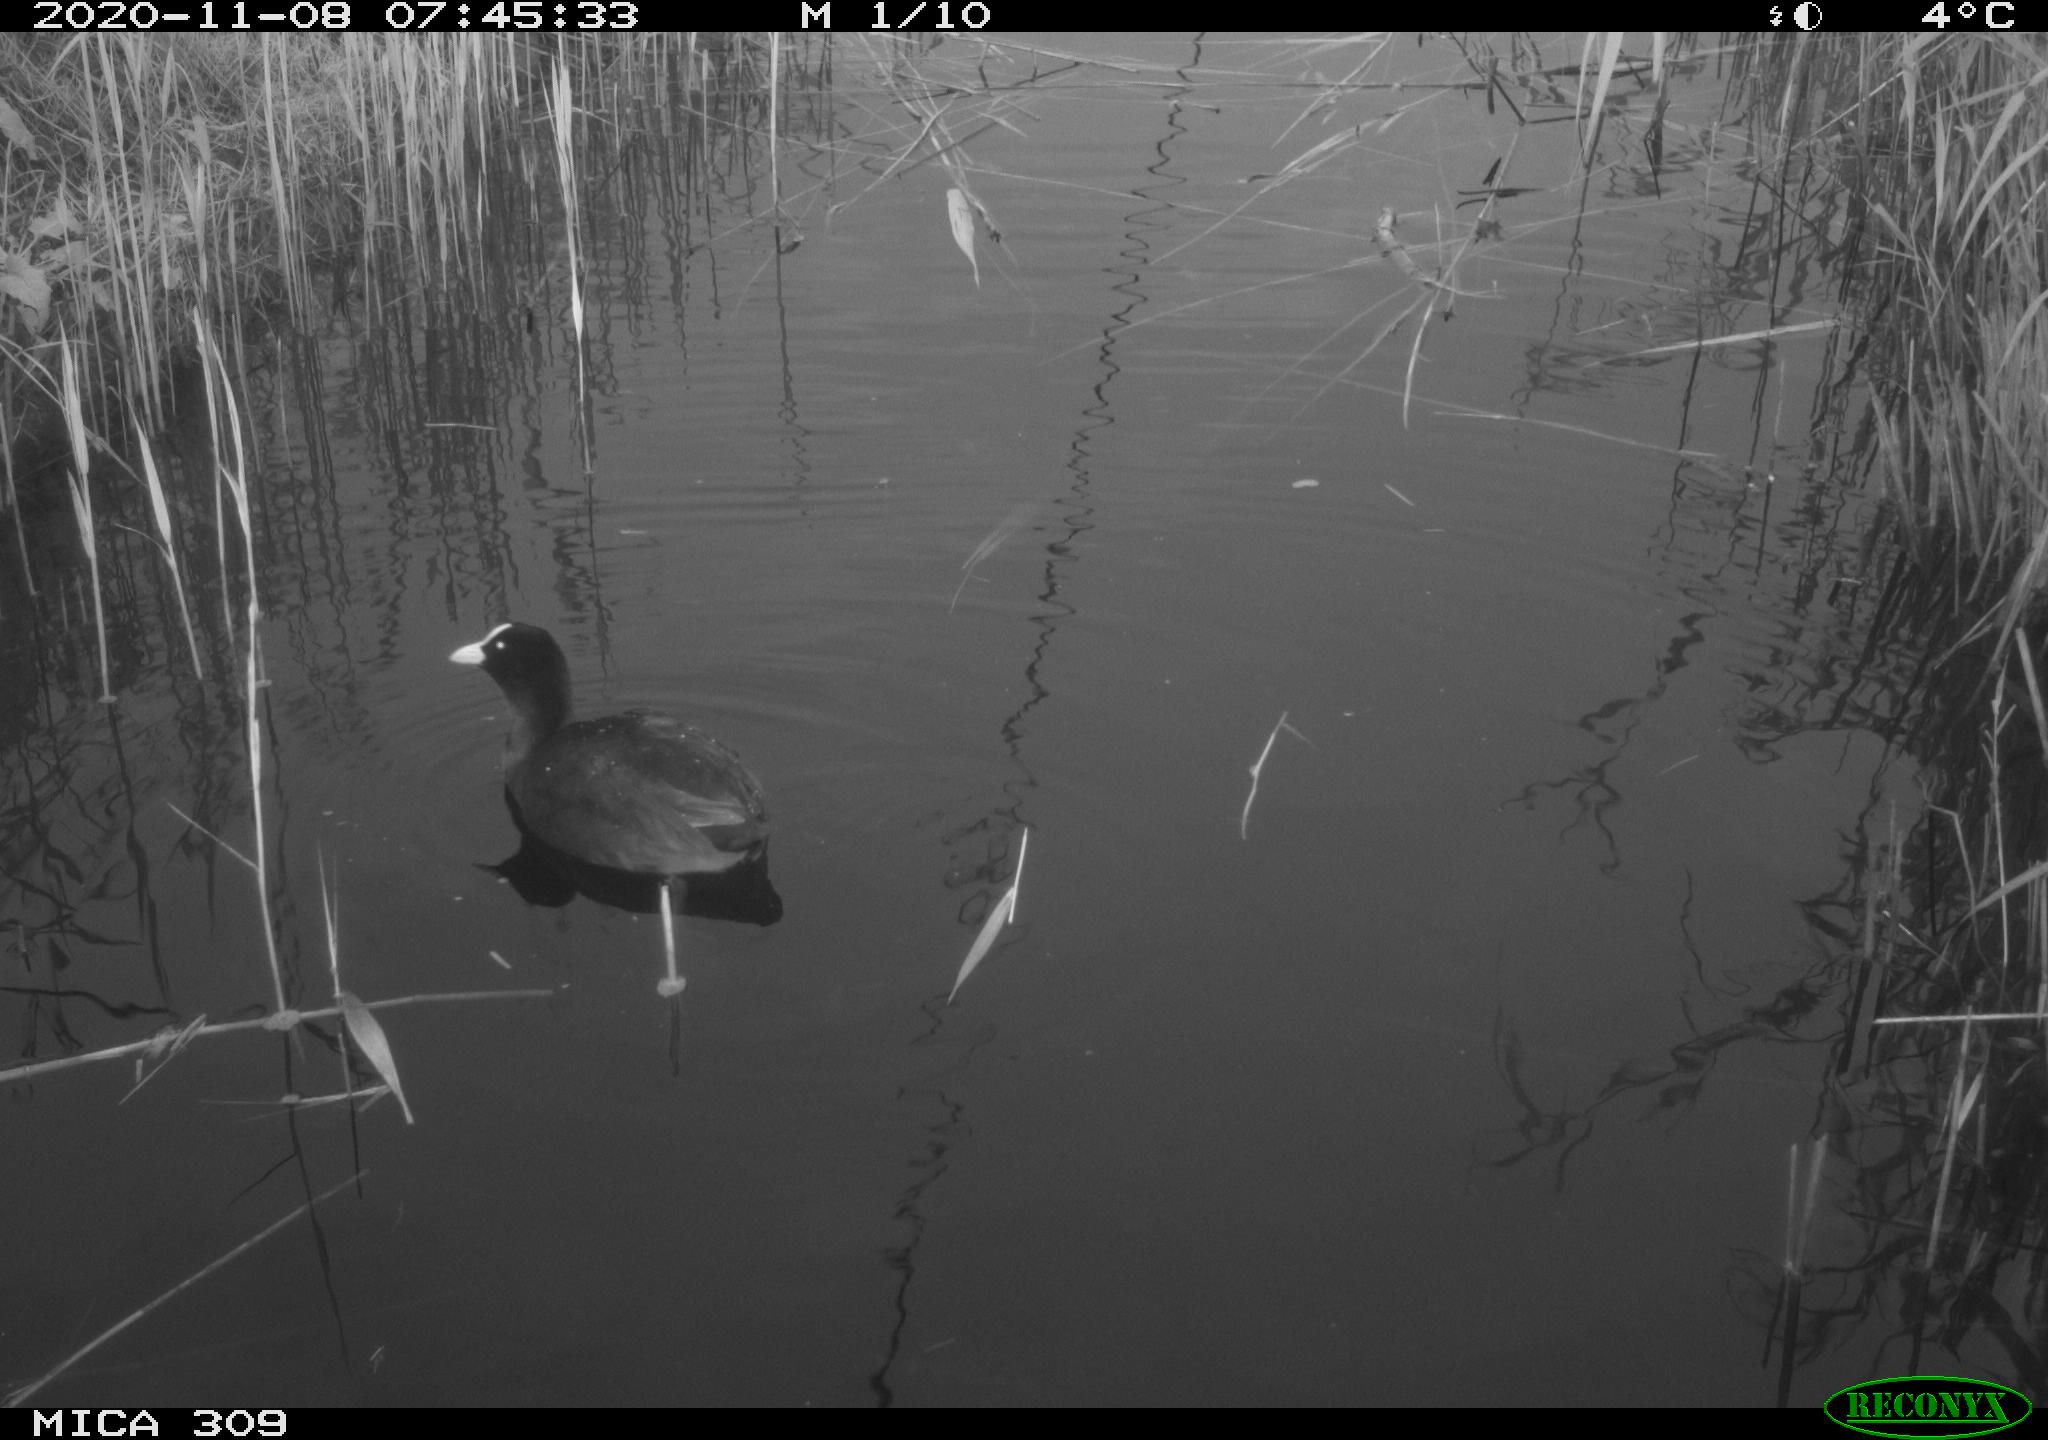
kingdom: Animalia
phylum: Chordata
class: Aves
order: Gruiformes
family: Rallidae
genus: Fulica
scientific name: Fulica atra
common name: Eurasian coot
